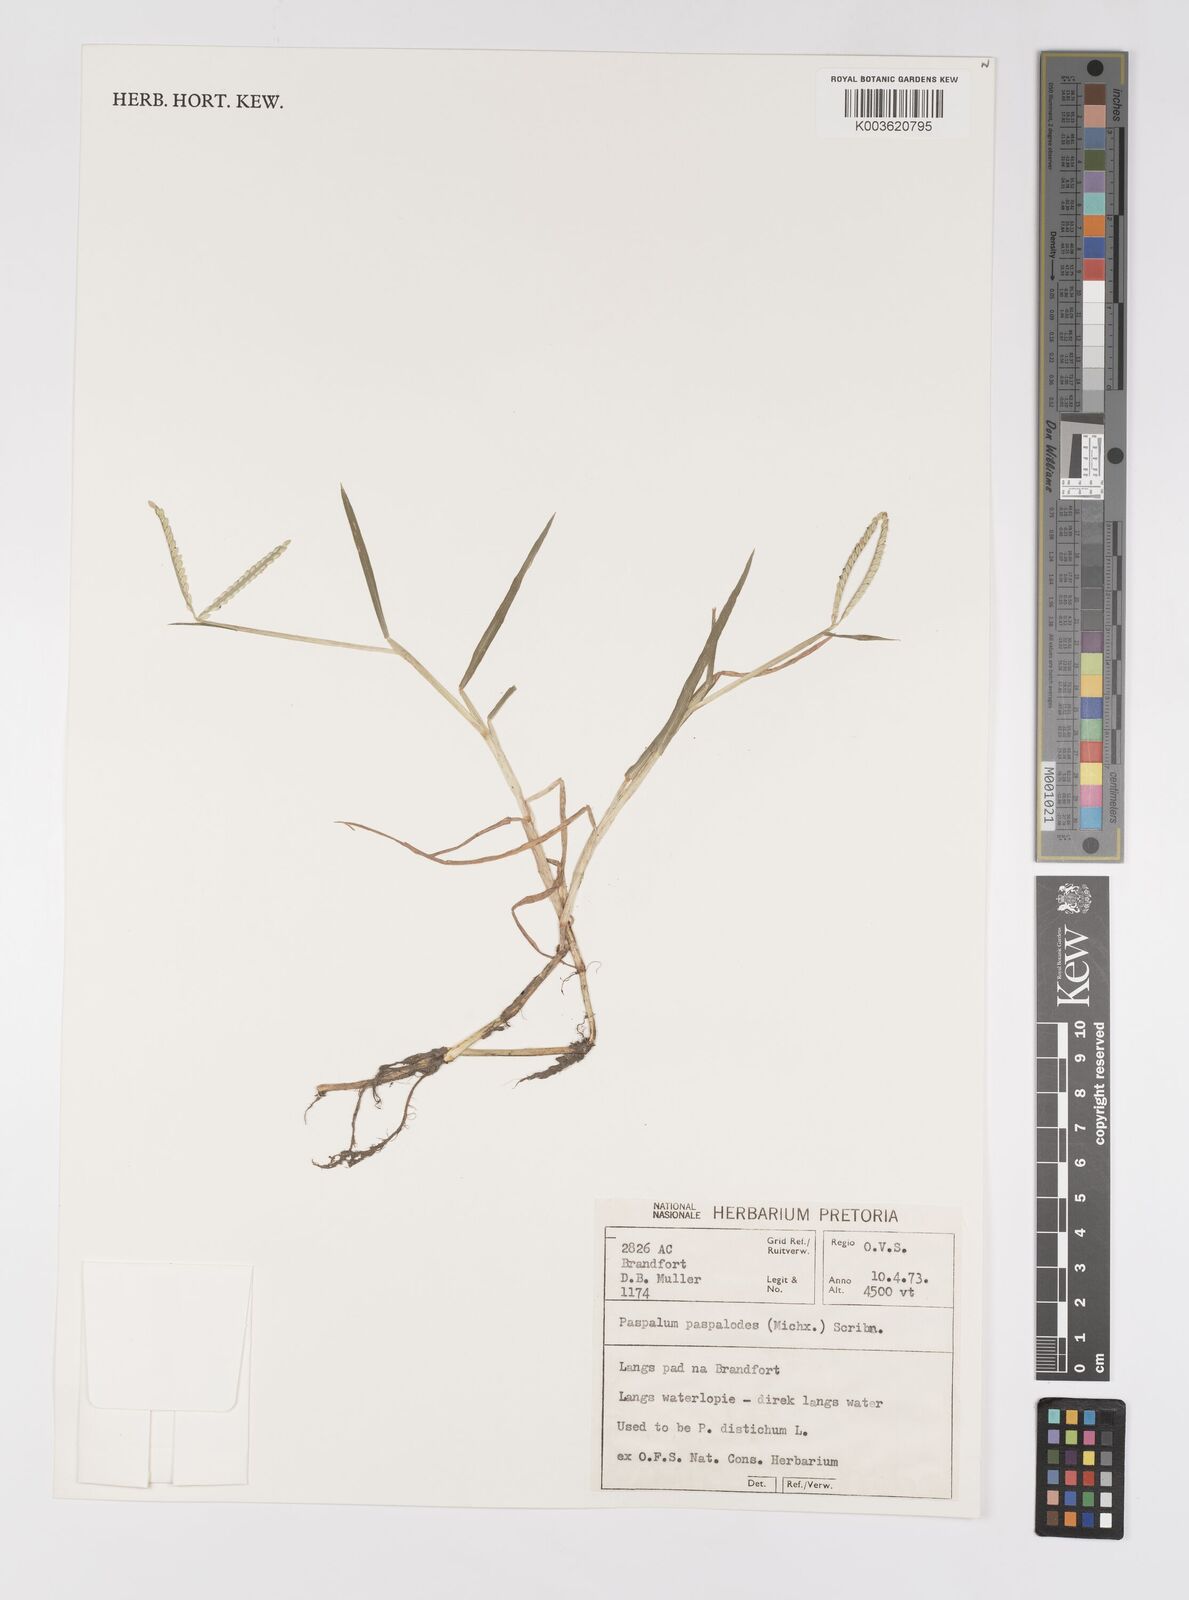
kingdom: Plantae
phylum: Tracheophyta
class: Liliopsida
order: Poales
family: Poaceae
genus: Paspalum
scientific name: Paspalum distichum
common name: Knotgrass
